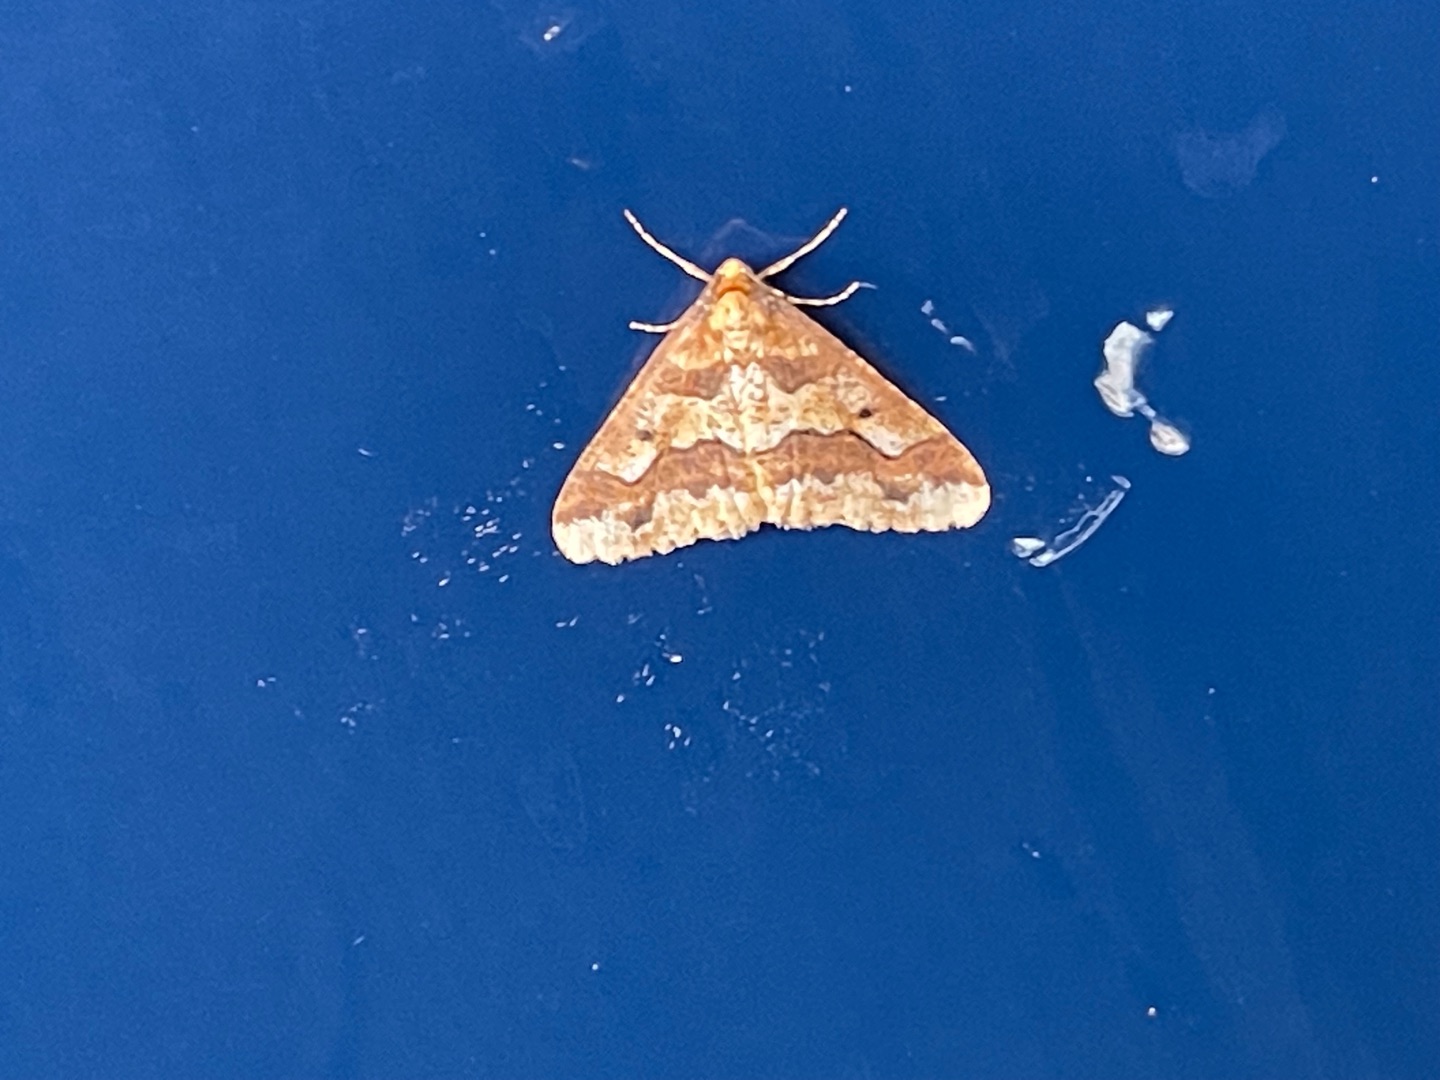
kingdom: Animalia
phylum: Arthropoda
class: Insecta
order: Lepidoptera
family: Geometridae
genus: Erannis
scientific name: Erannis defoliaria
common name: Stor frostmåler
